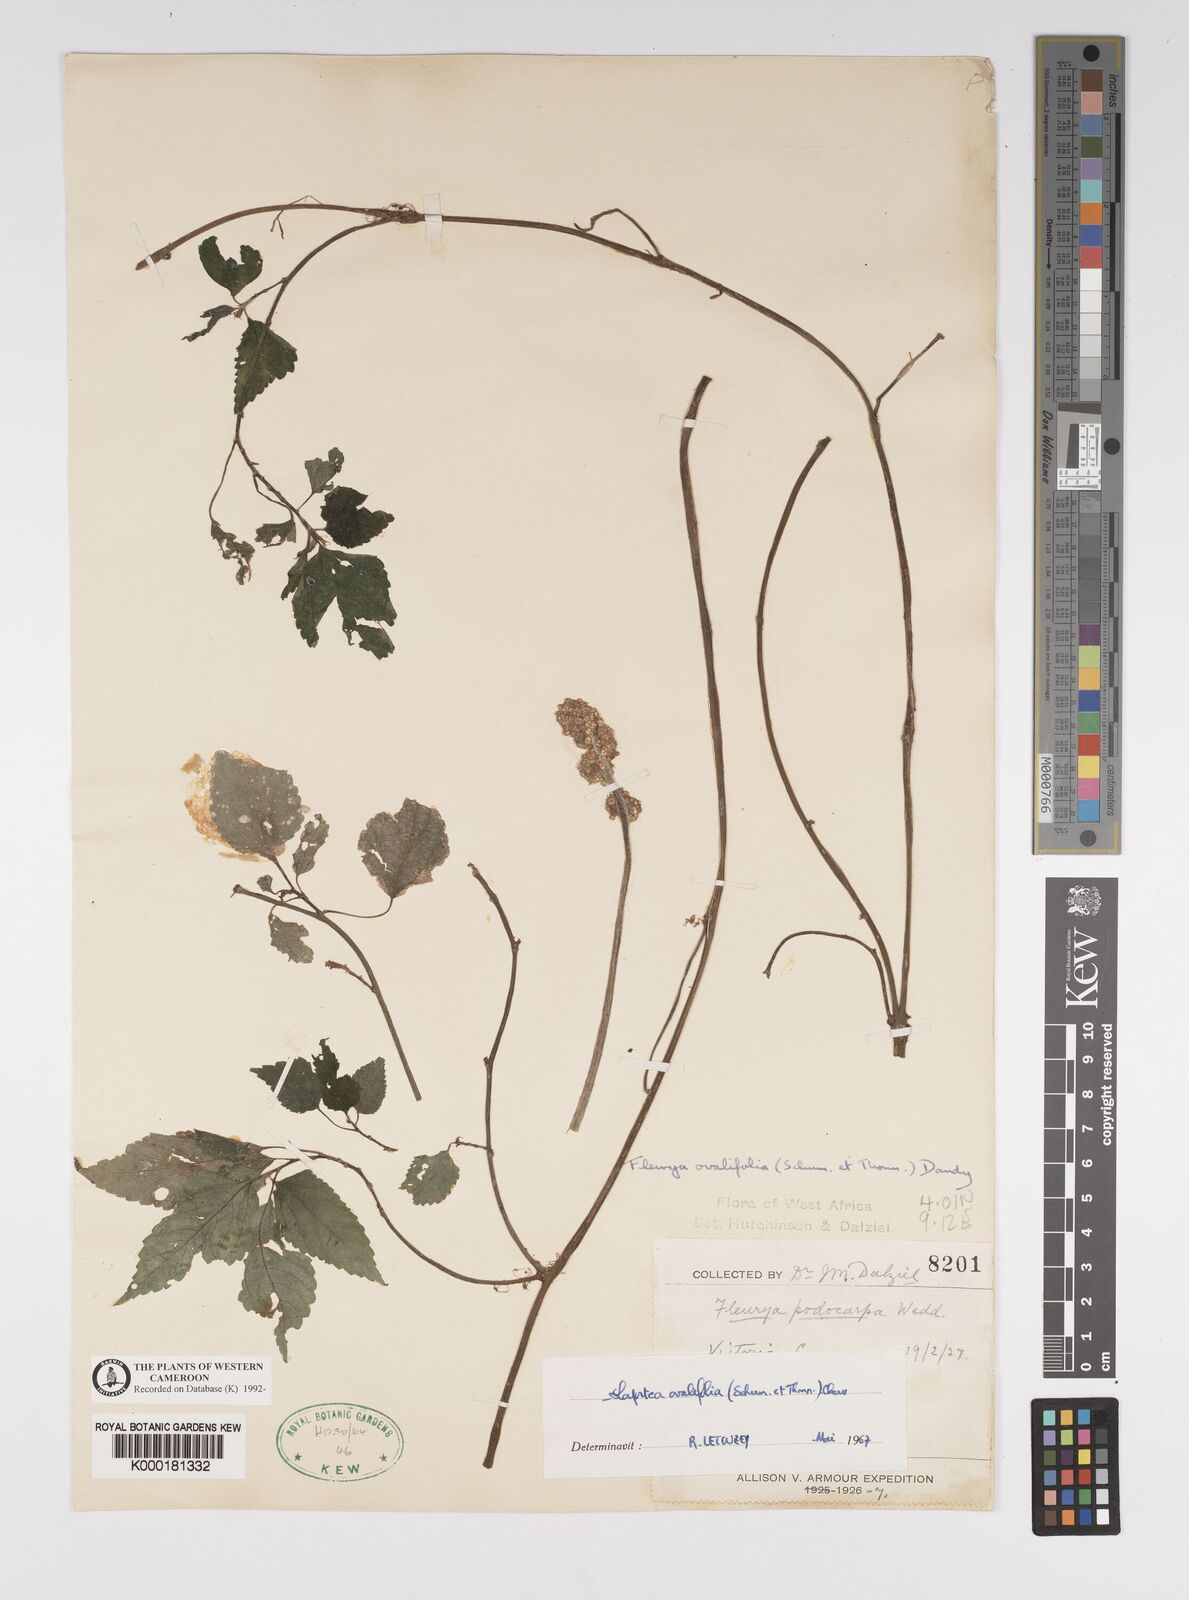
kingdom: Plantae
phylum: Tracheophyta
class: Magnoliopsida
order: Rosales
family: Urticaceae
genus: Laportea
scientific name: Laportea ovalifolia
